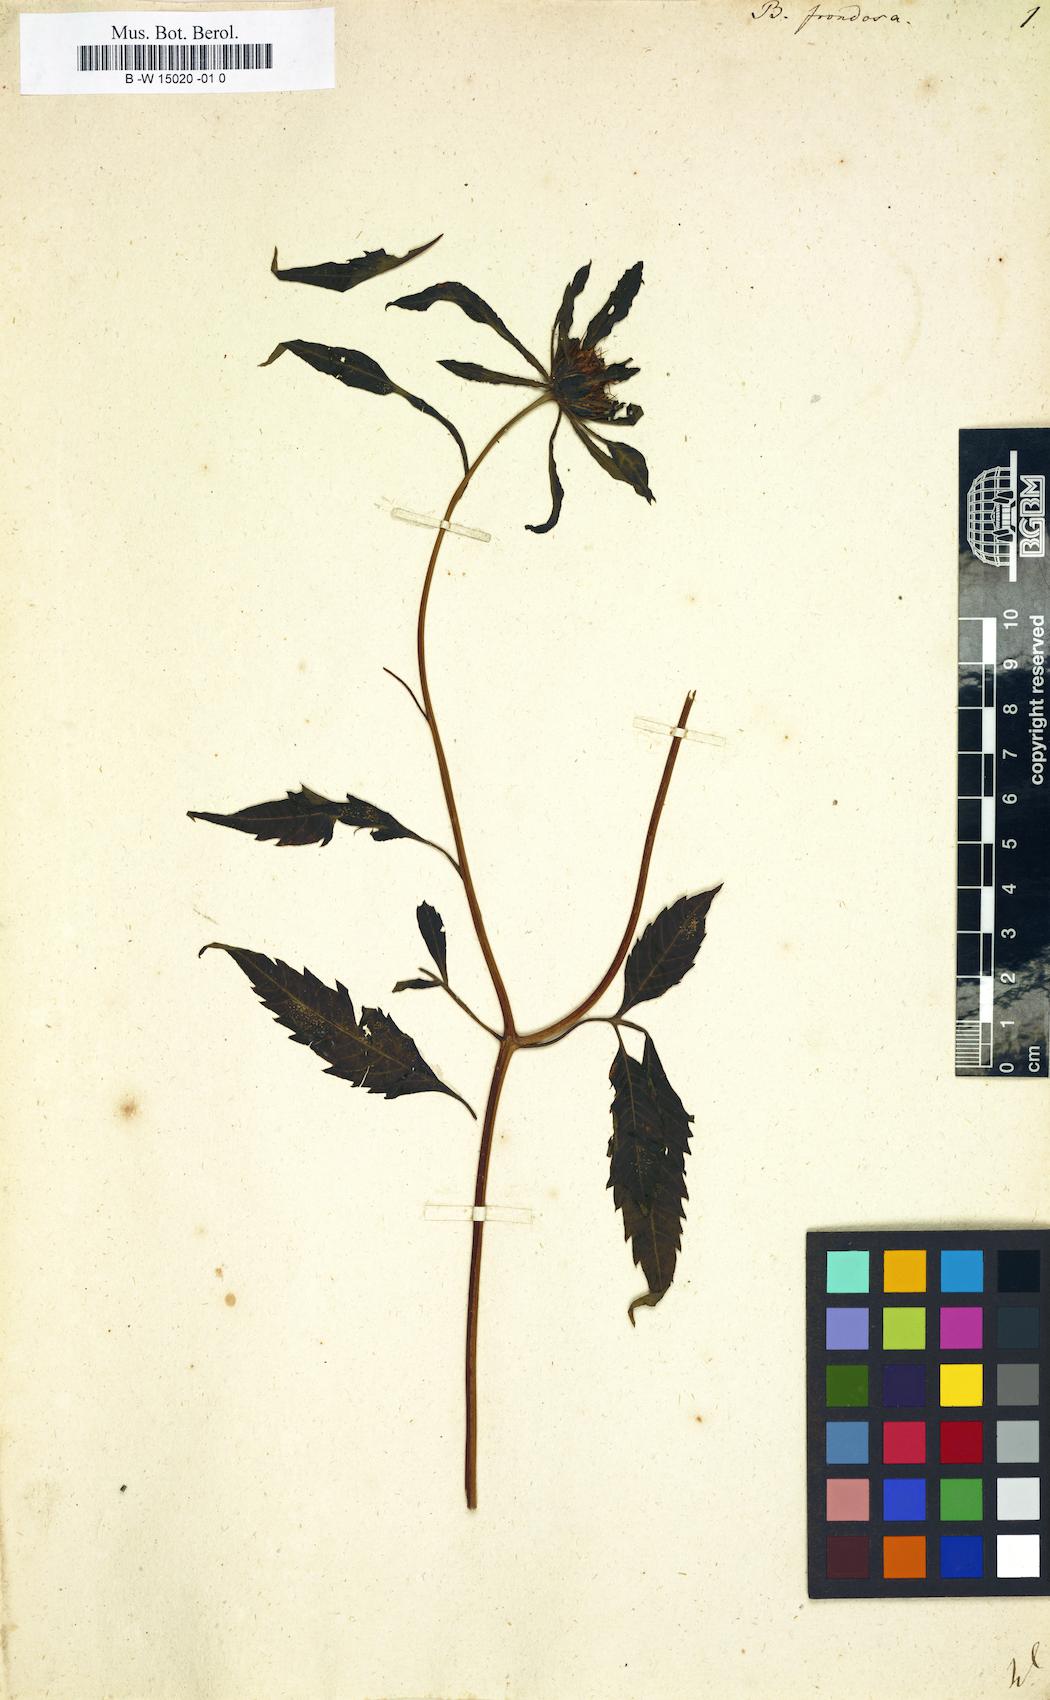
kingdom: Plantae
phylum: Tracheophyta
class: Magnoliopsida
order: Asterales
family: Asteraceae
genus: Bidens
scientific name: Bidens frondosa
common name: Beggarticks
